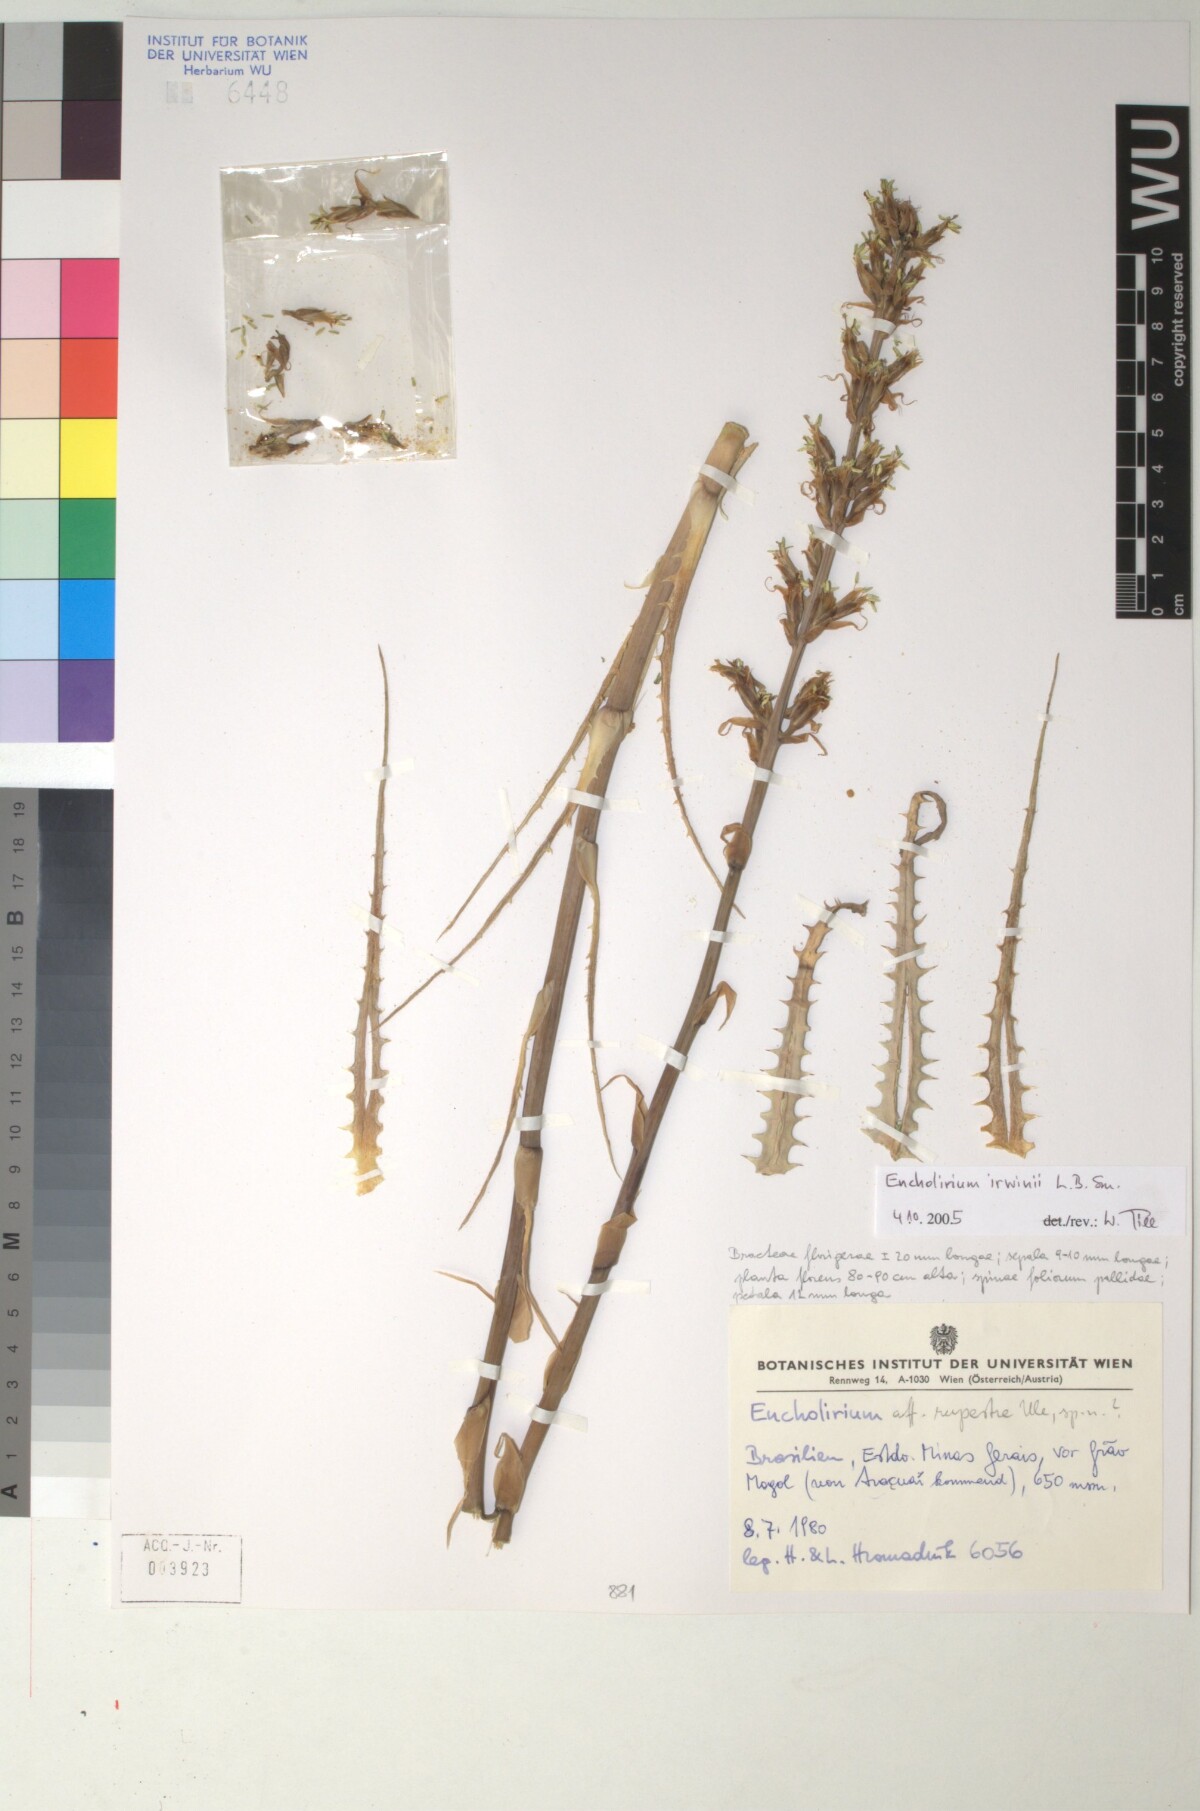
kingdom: Plantae
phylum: Tracheophyta
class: Liliopsida
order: Poales
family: Bromeliaceae
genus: Encholirium
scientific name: Encholirium irwinii
